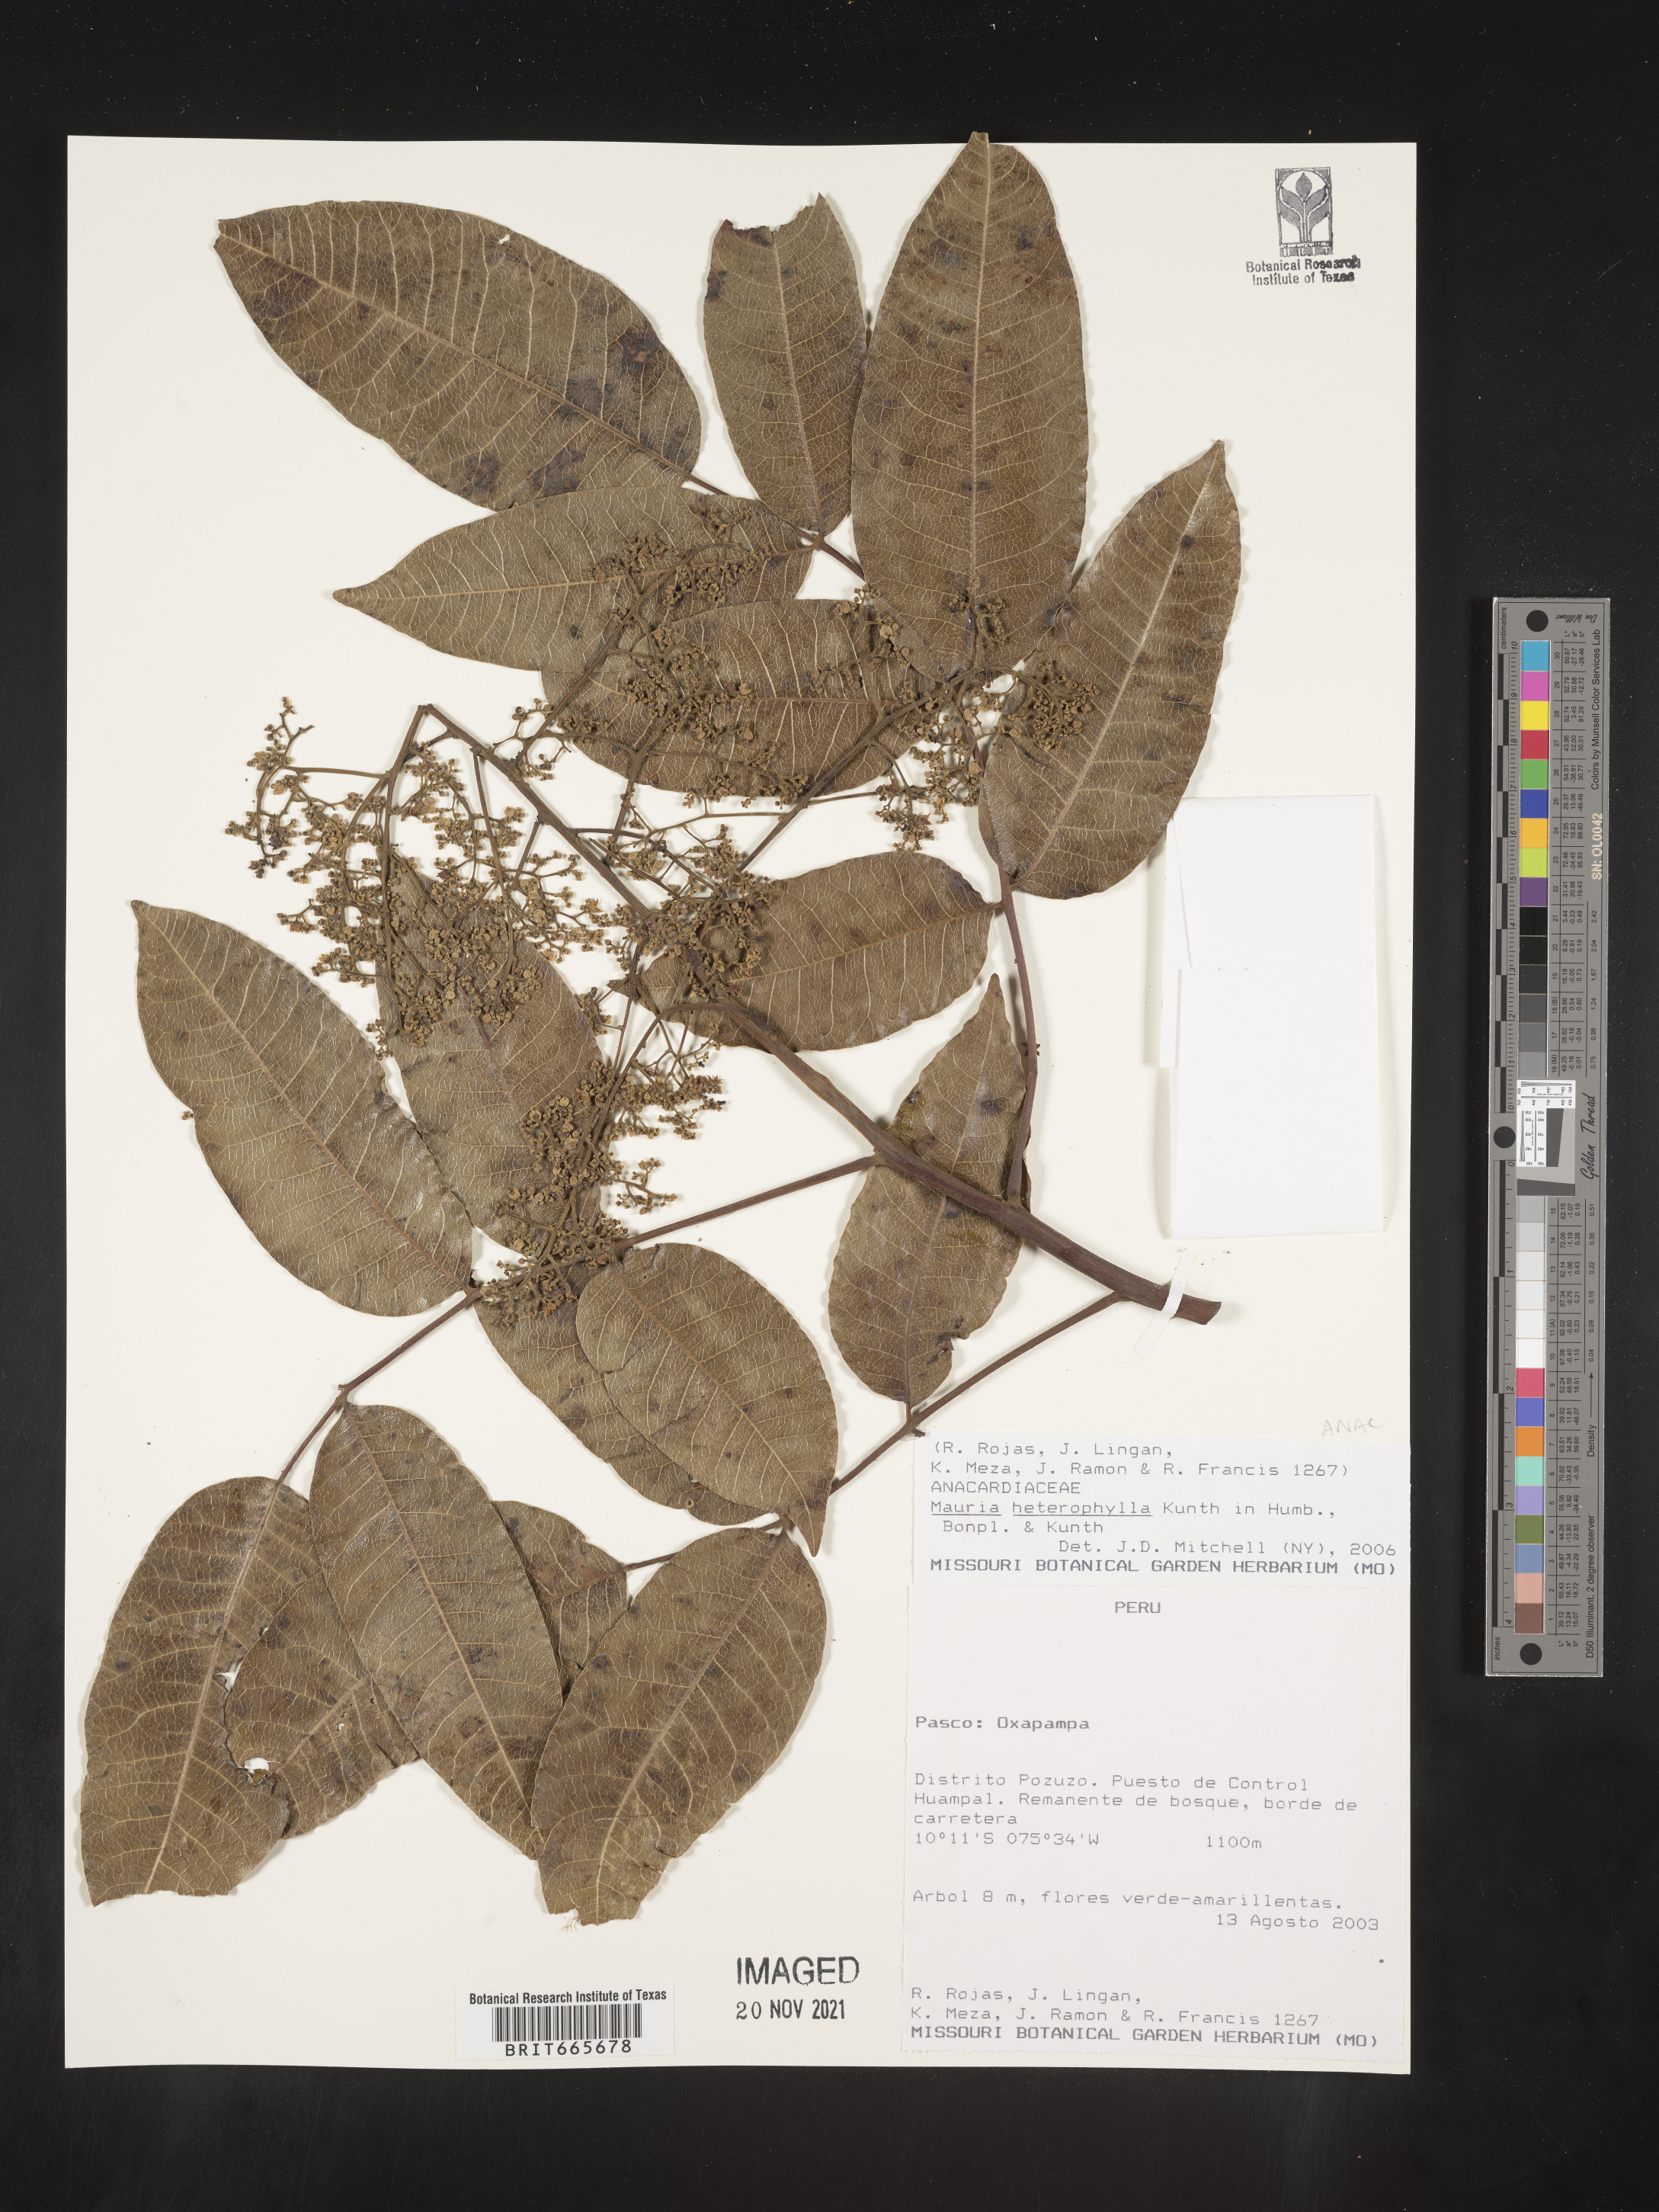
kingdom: Plantae
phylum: Tracheophyta
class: Magnoliopsida
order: Sapindales
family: Anacardiaceae
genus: Mauria
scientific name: Mauria
